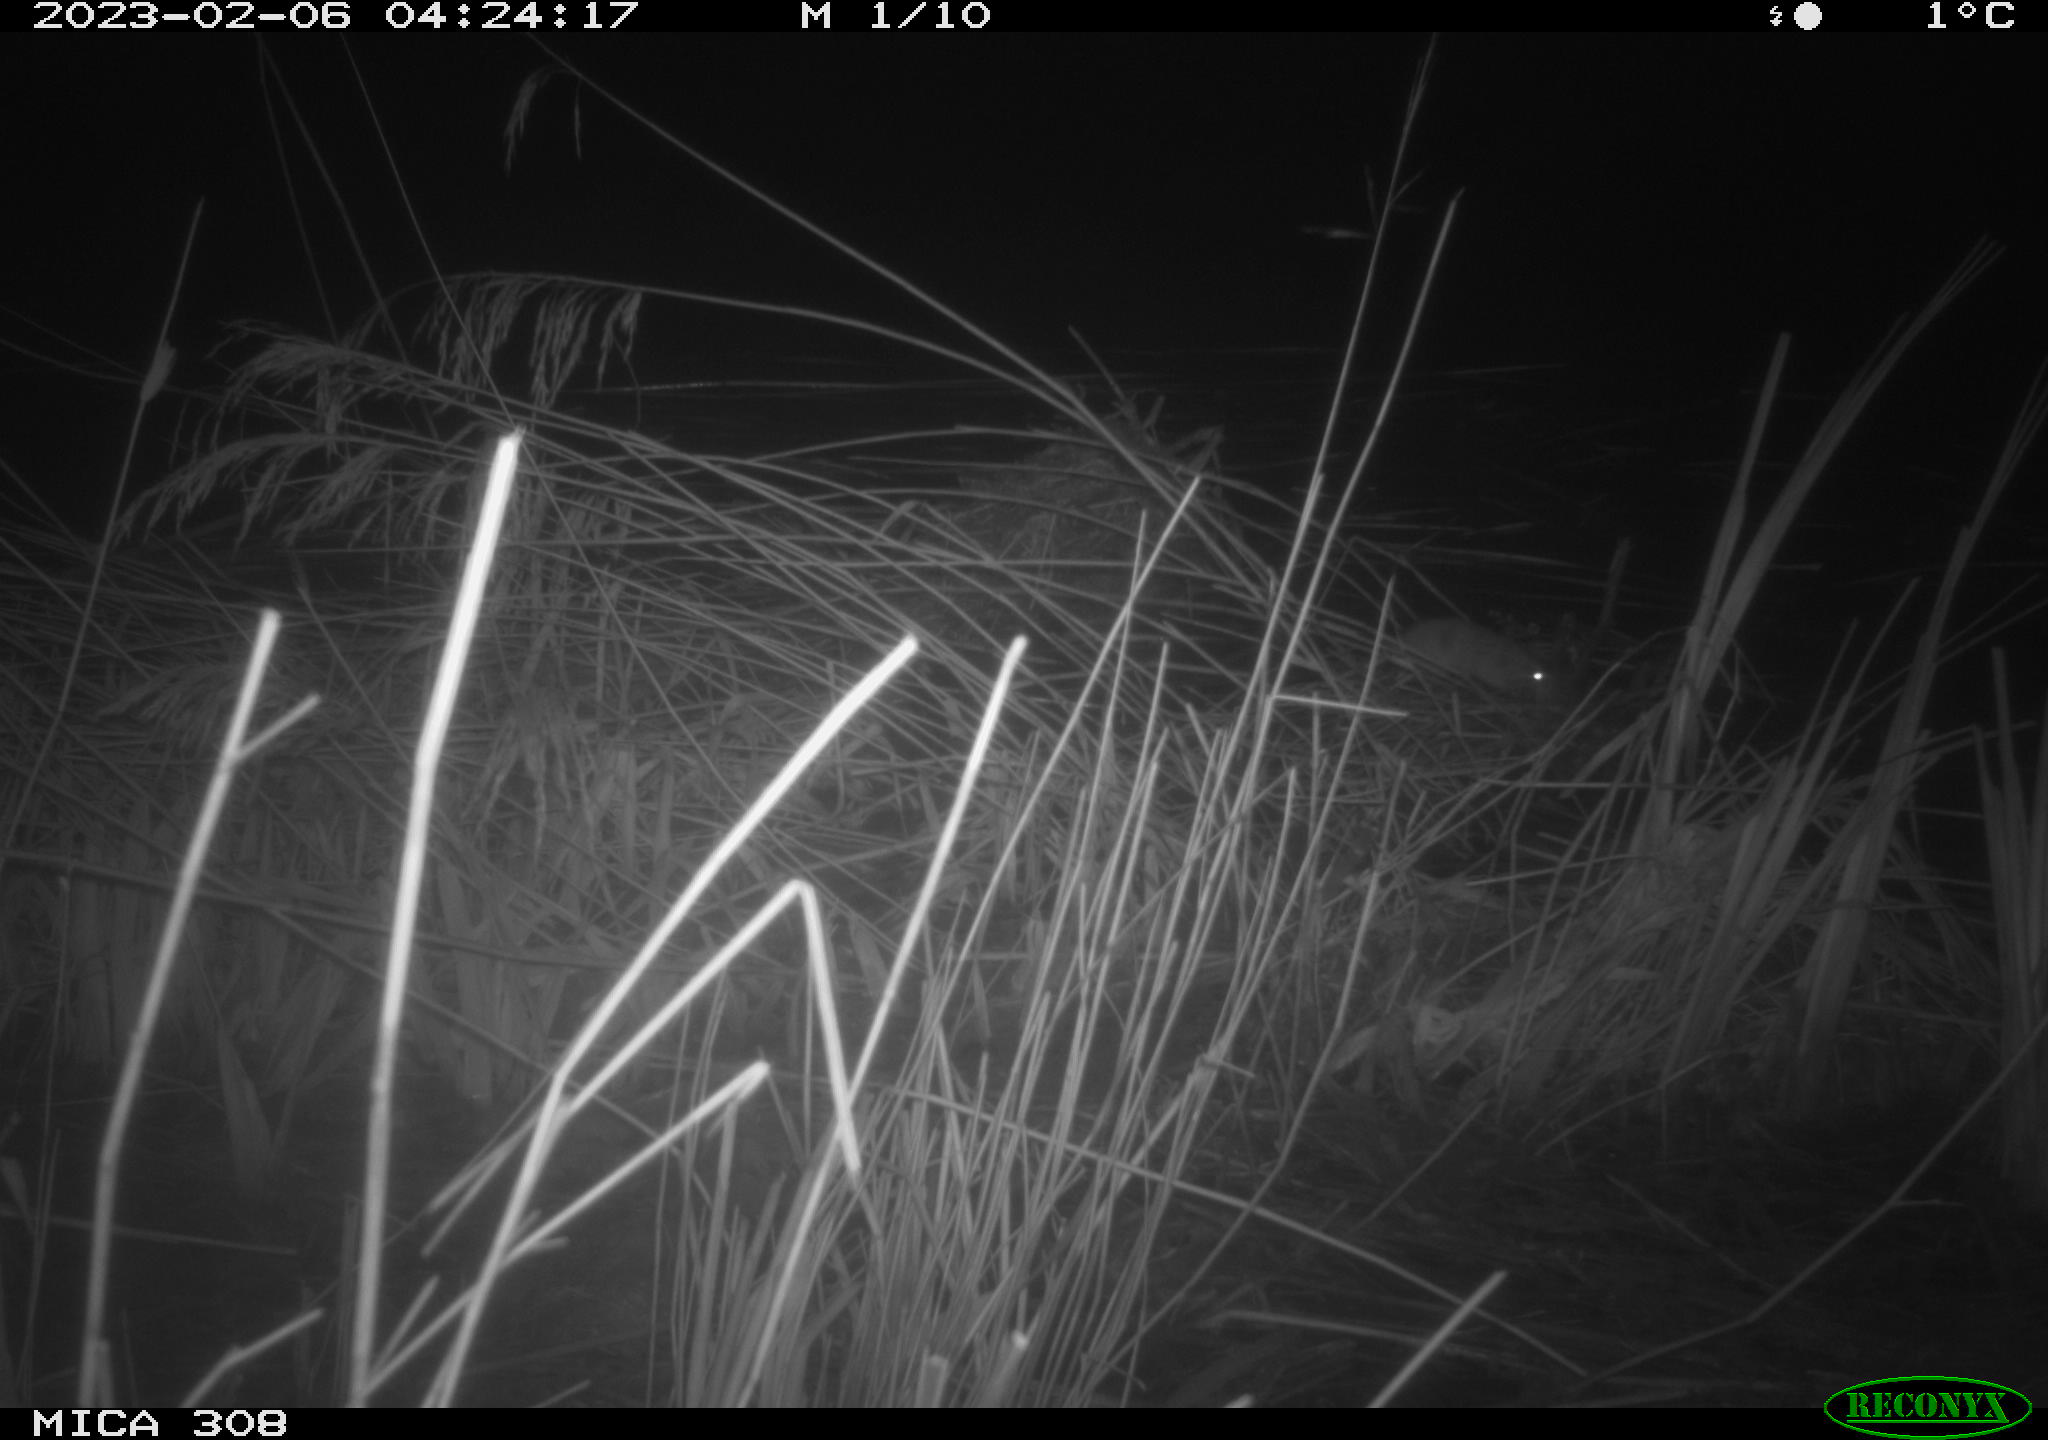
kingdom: Animalia
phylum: Chordata
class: Mammalia
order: Rodentia
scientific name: Rodentia
